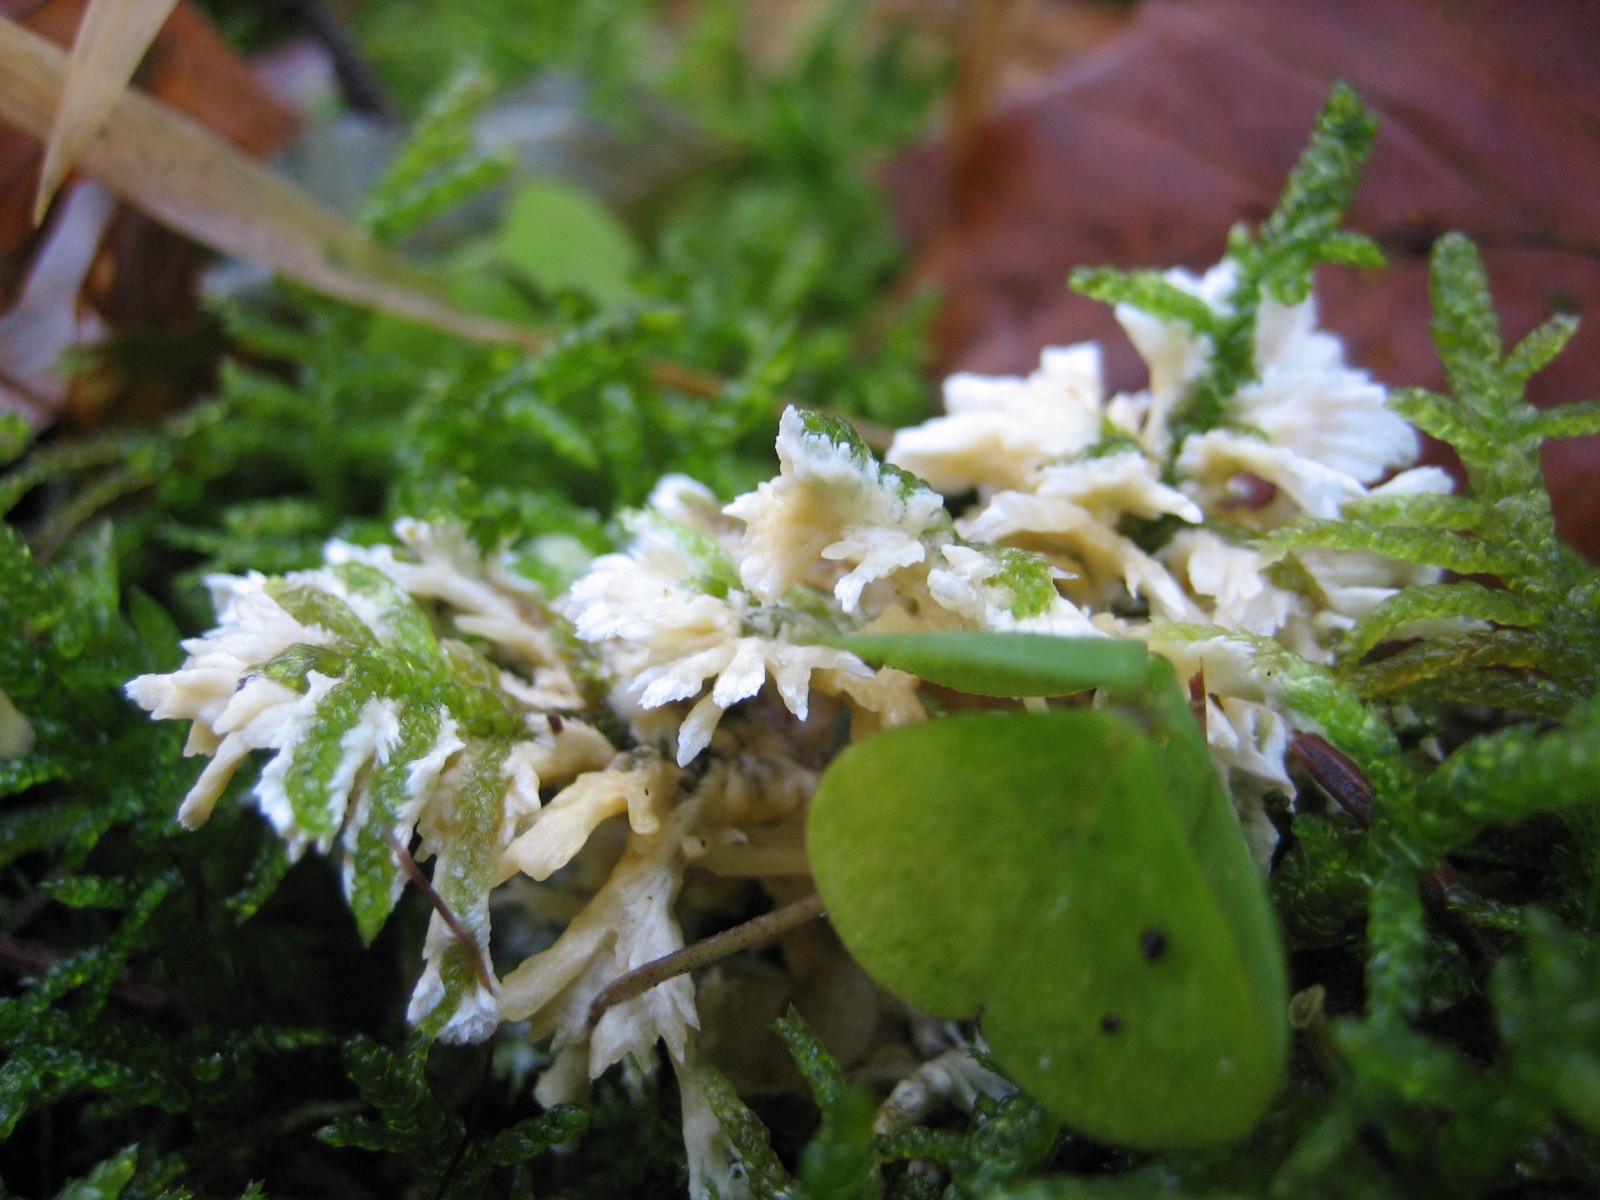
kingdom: Fungi
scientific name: Fungi
